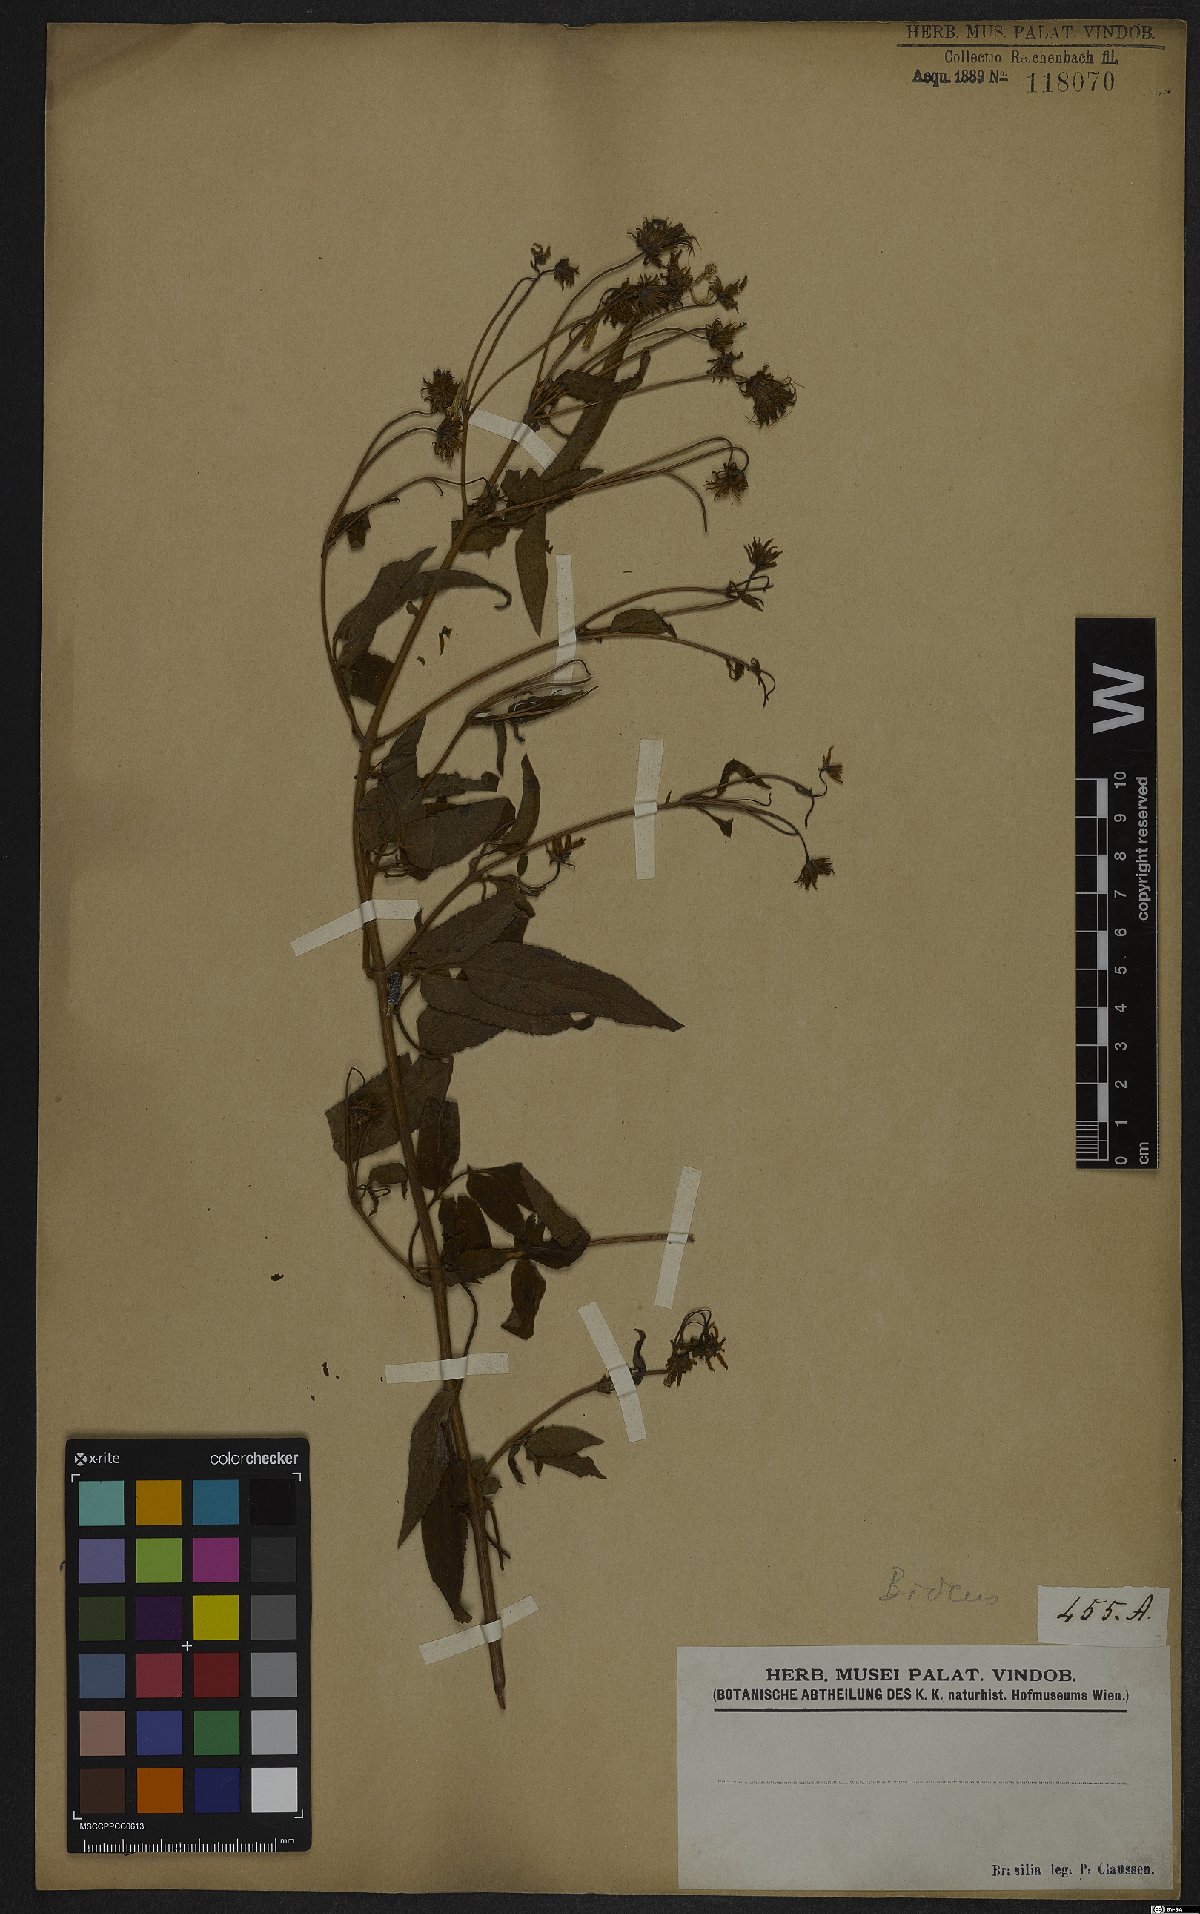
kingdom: Plantae
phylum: Tracheophyta
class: Magnoliopsida
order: Asterales
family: Asteraceae
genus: Bidens
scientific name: Bidens
